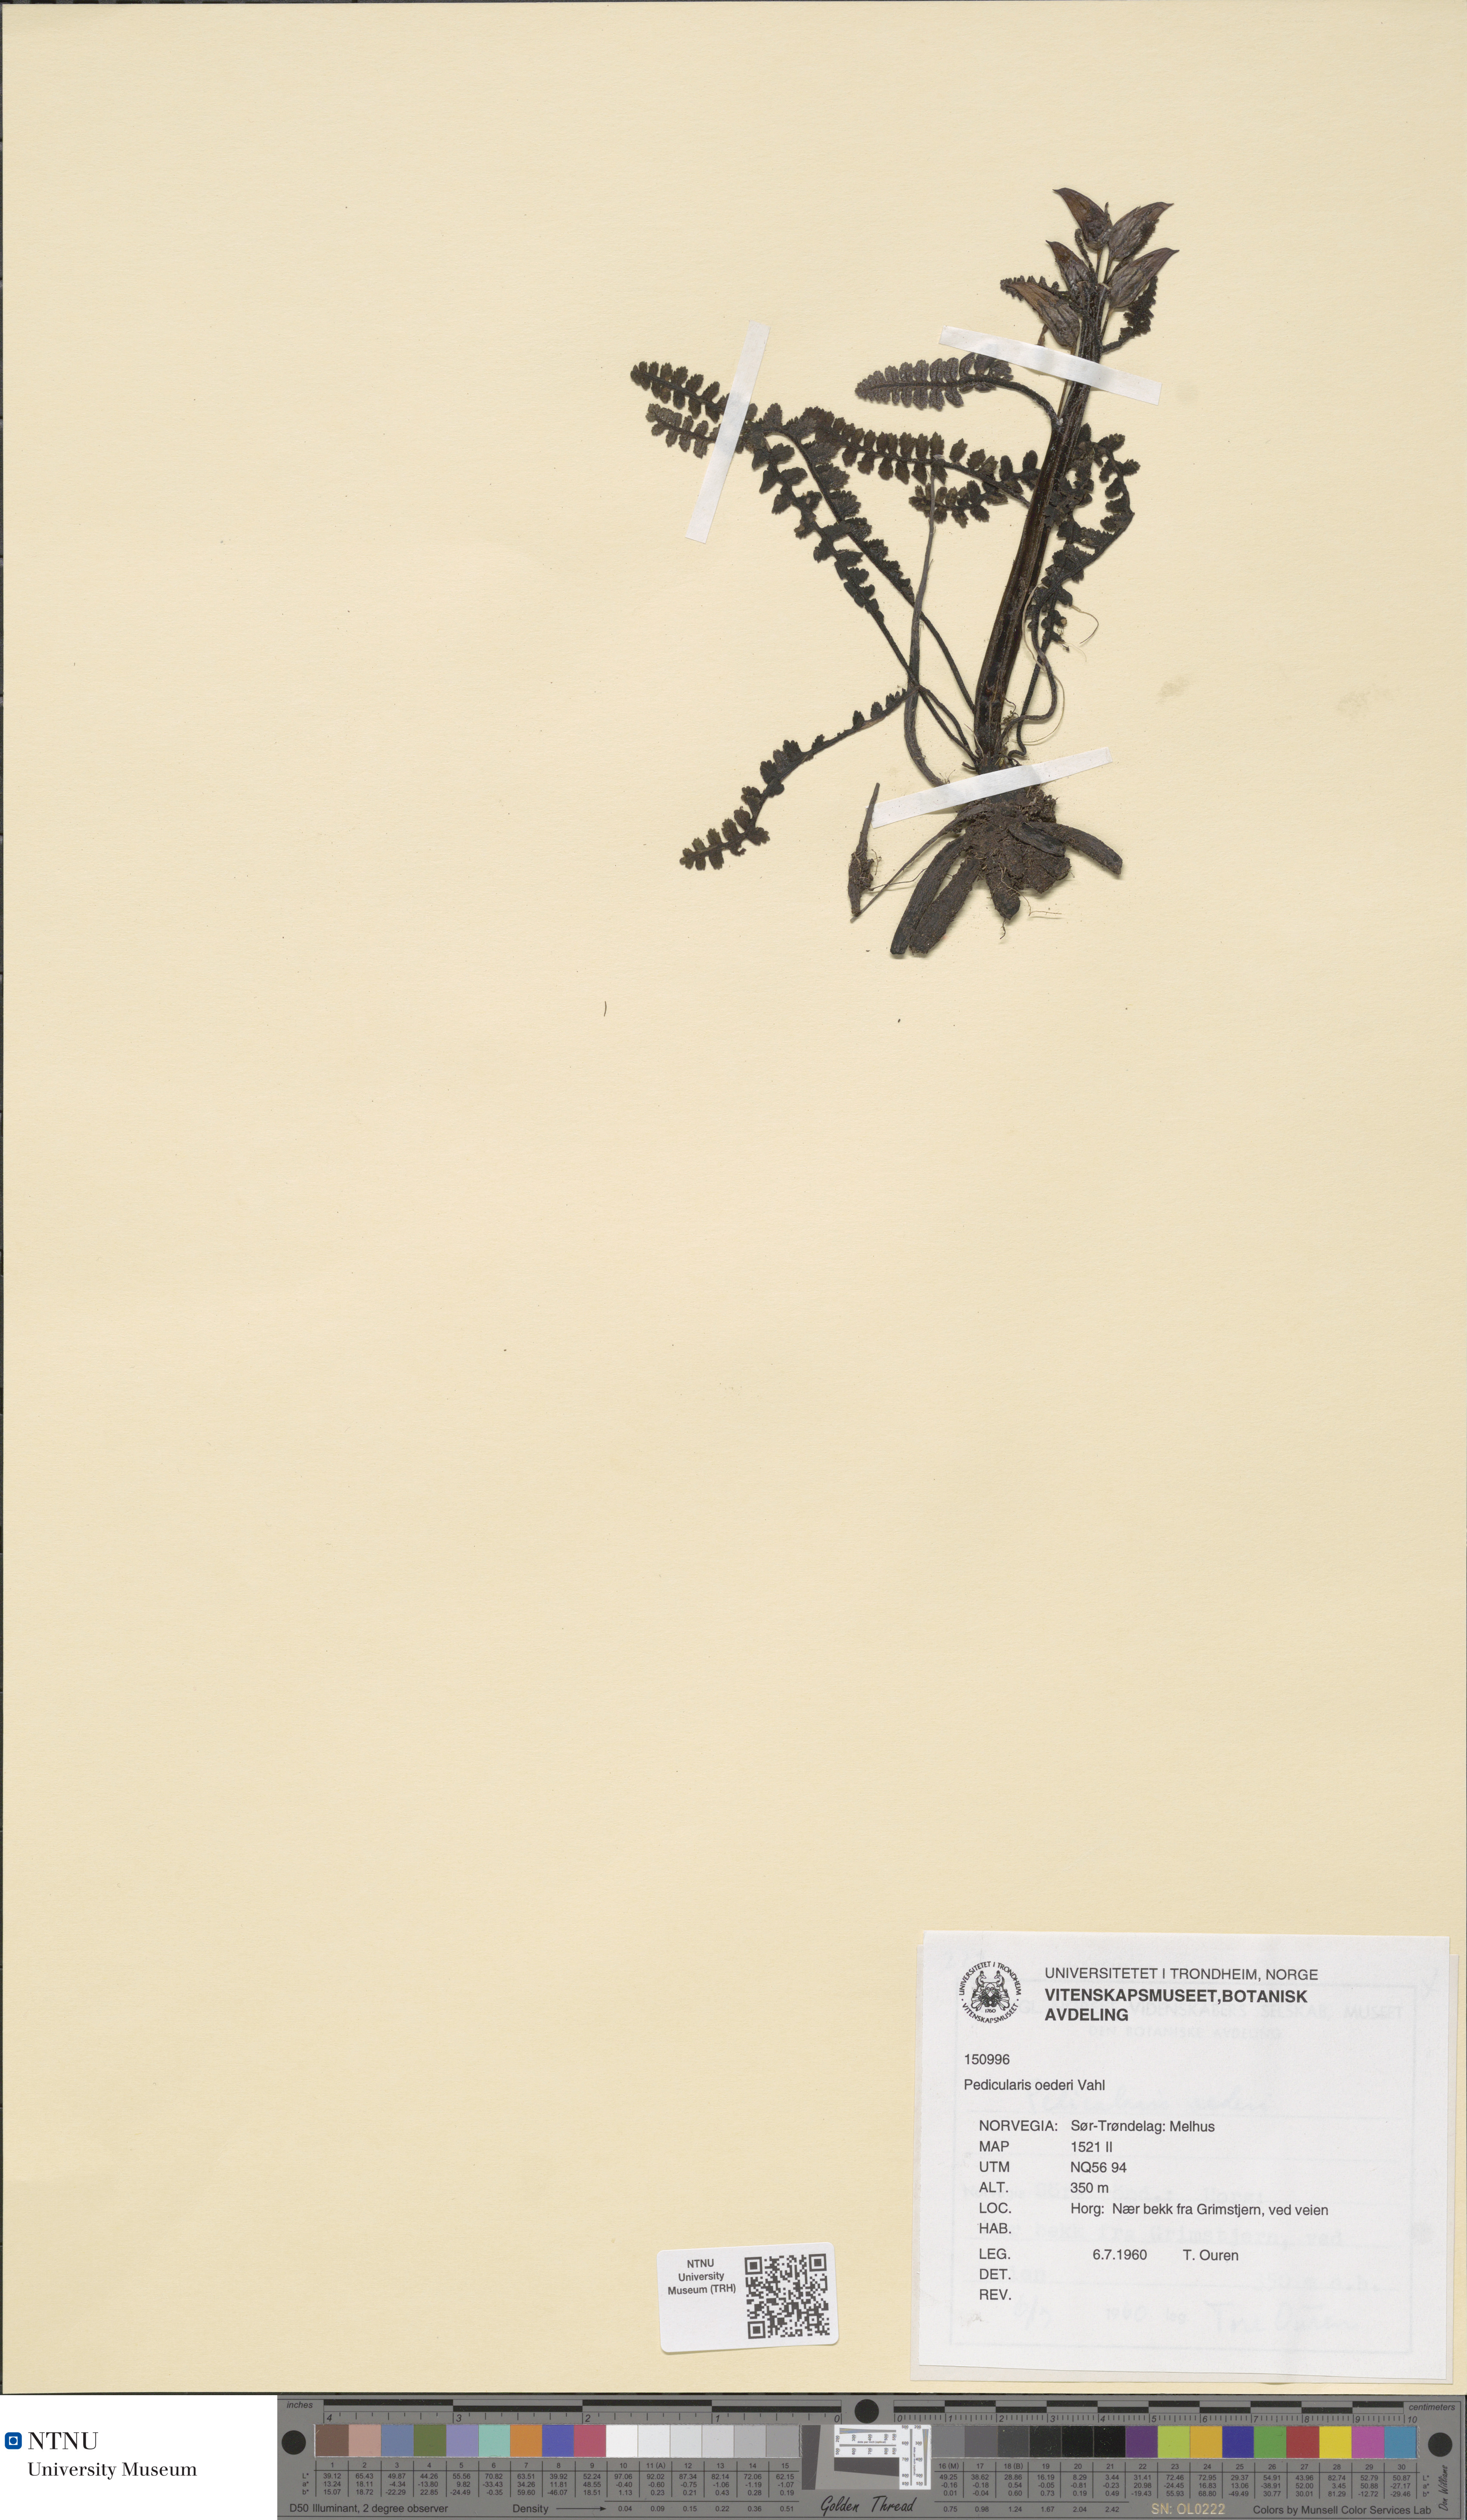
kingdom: Plantae
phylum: Tracheophyta
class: Magnoliopsida
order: Lamiales
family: Orobanchaceae
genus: Pedicularis
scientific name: Pedicularis oederi
